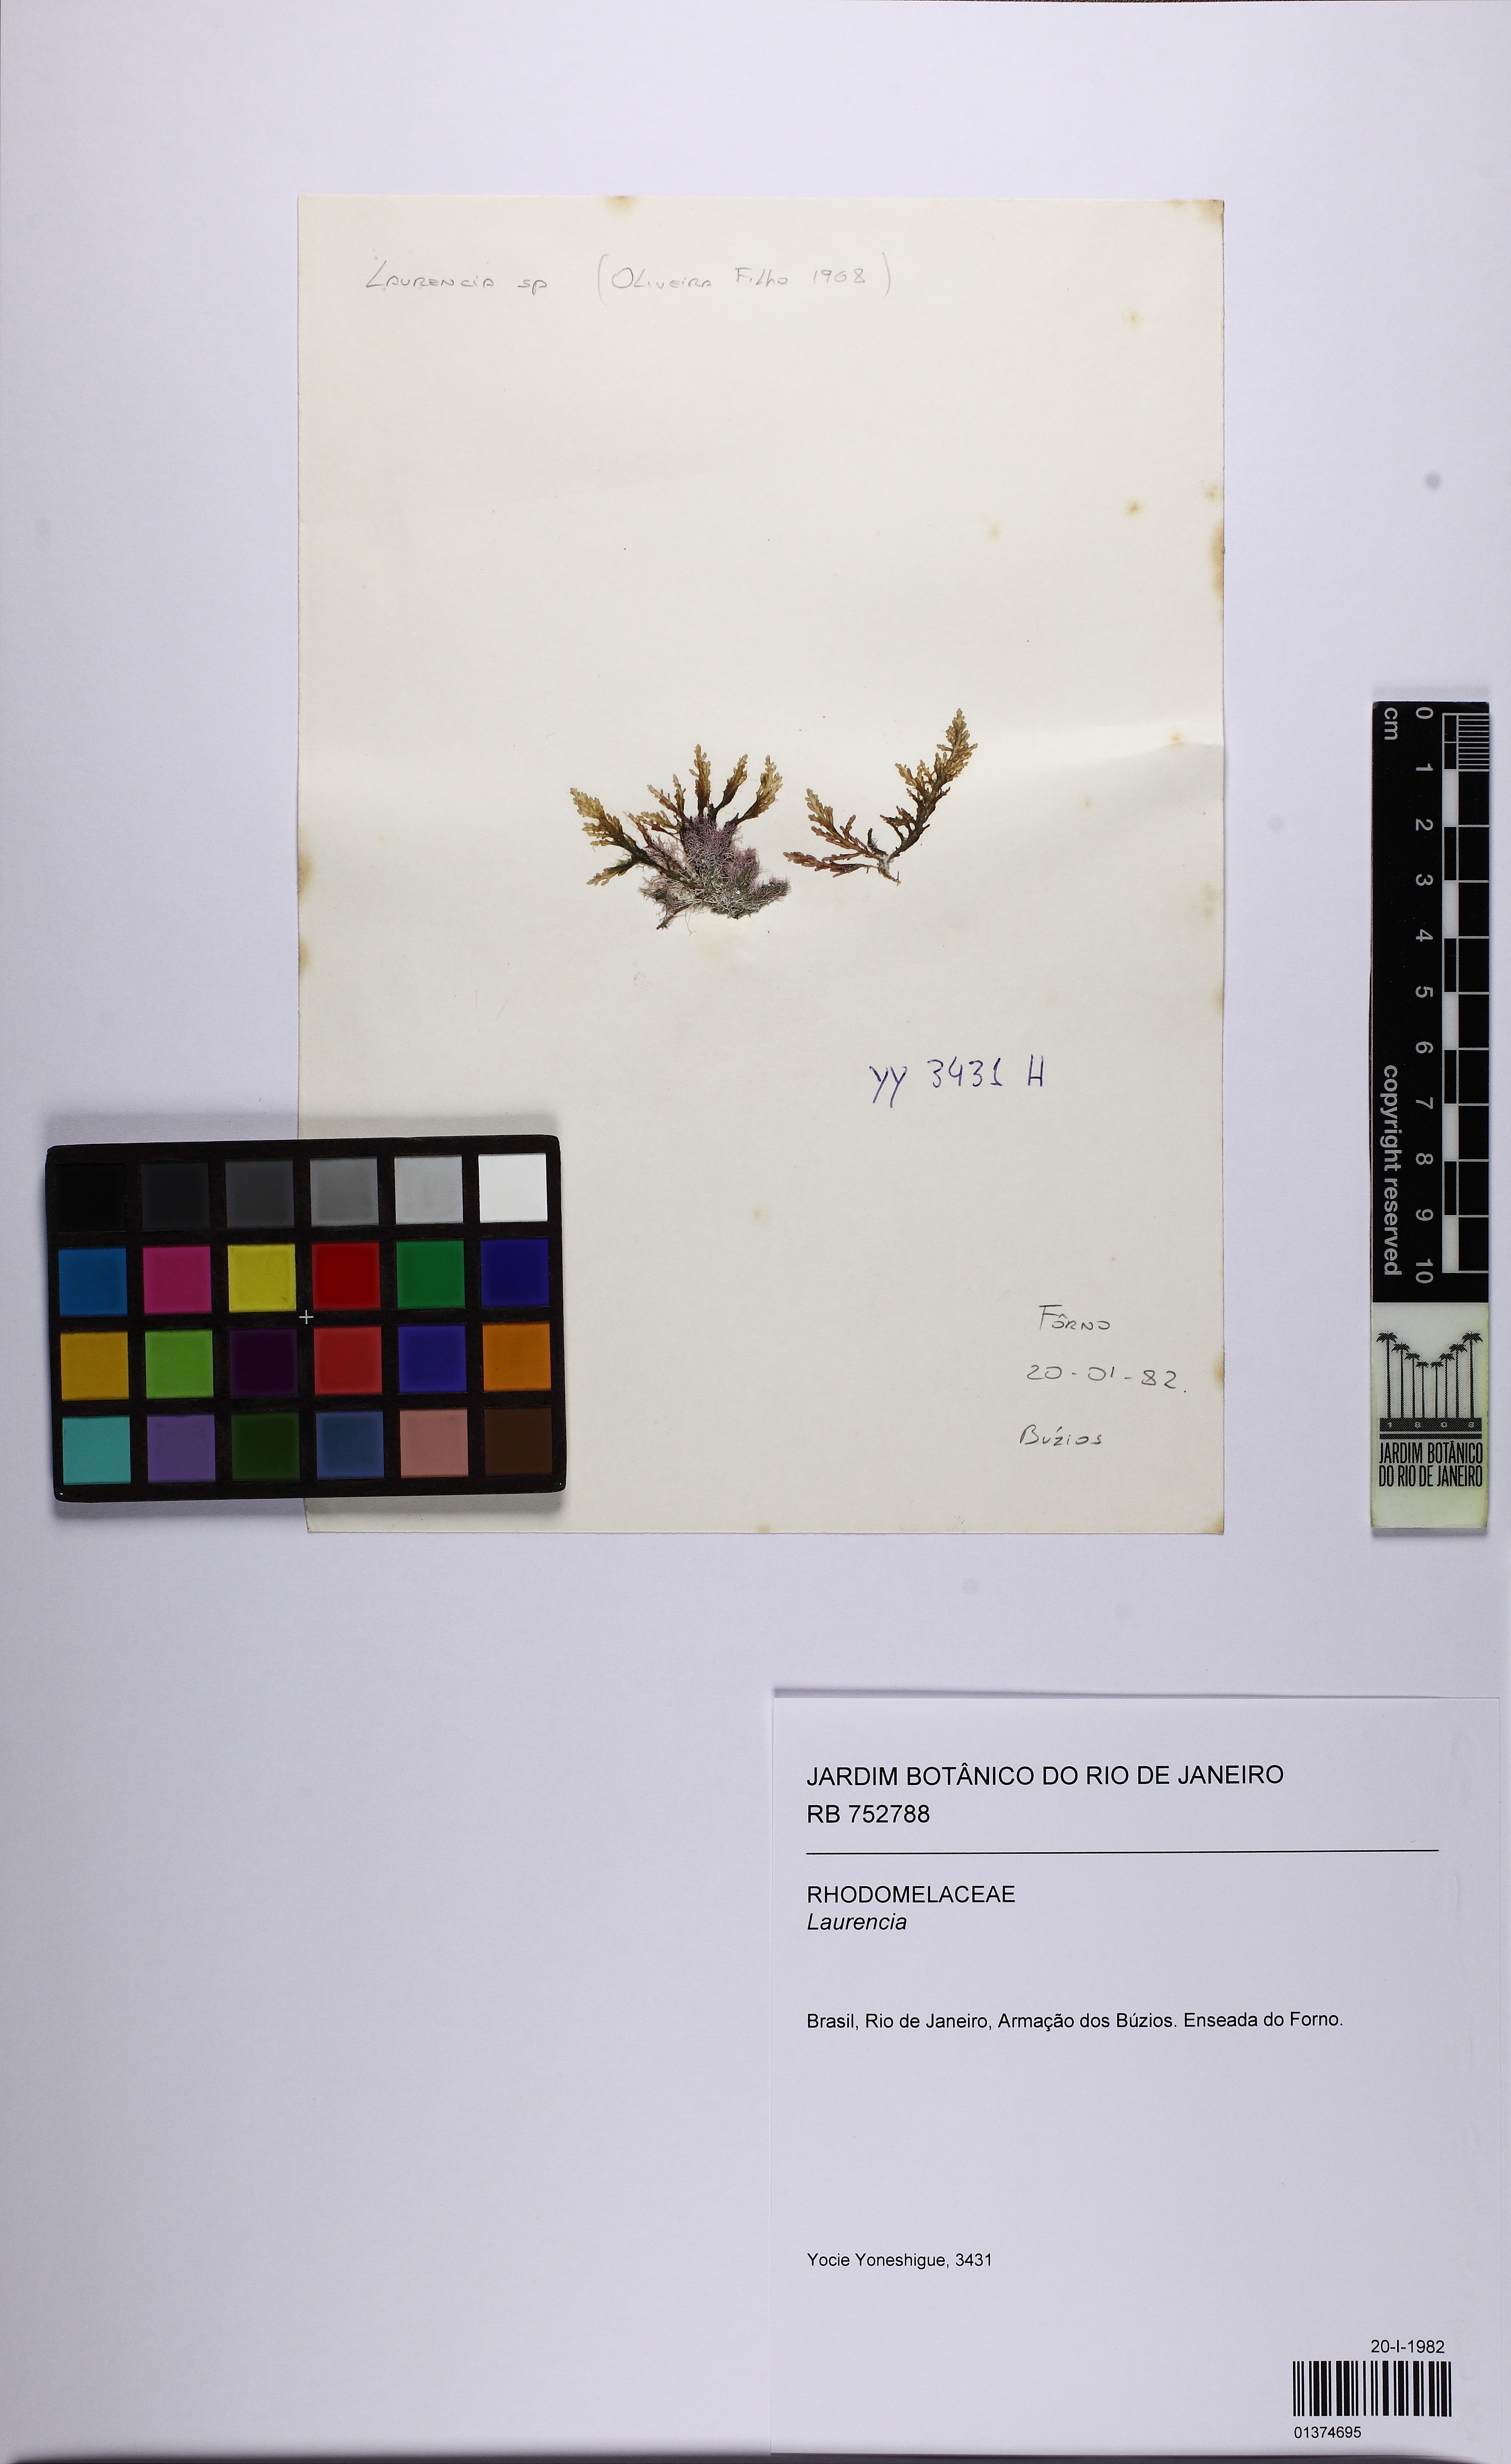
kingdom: Plantae
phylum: Rhodophyta
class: Florideophyceae
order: Ceramiales
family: Rhodomelaceae
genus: Laurencia
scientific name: Laurencia
